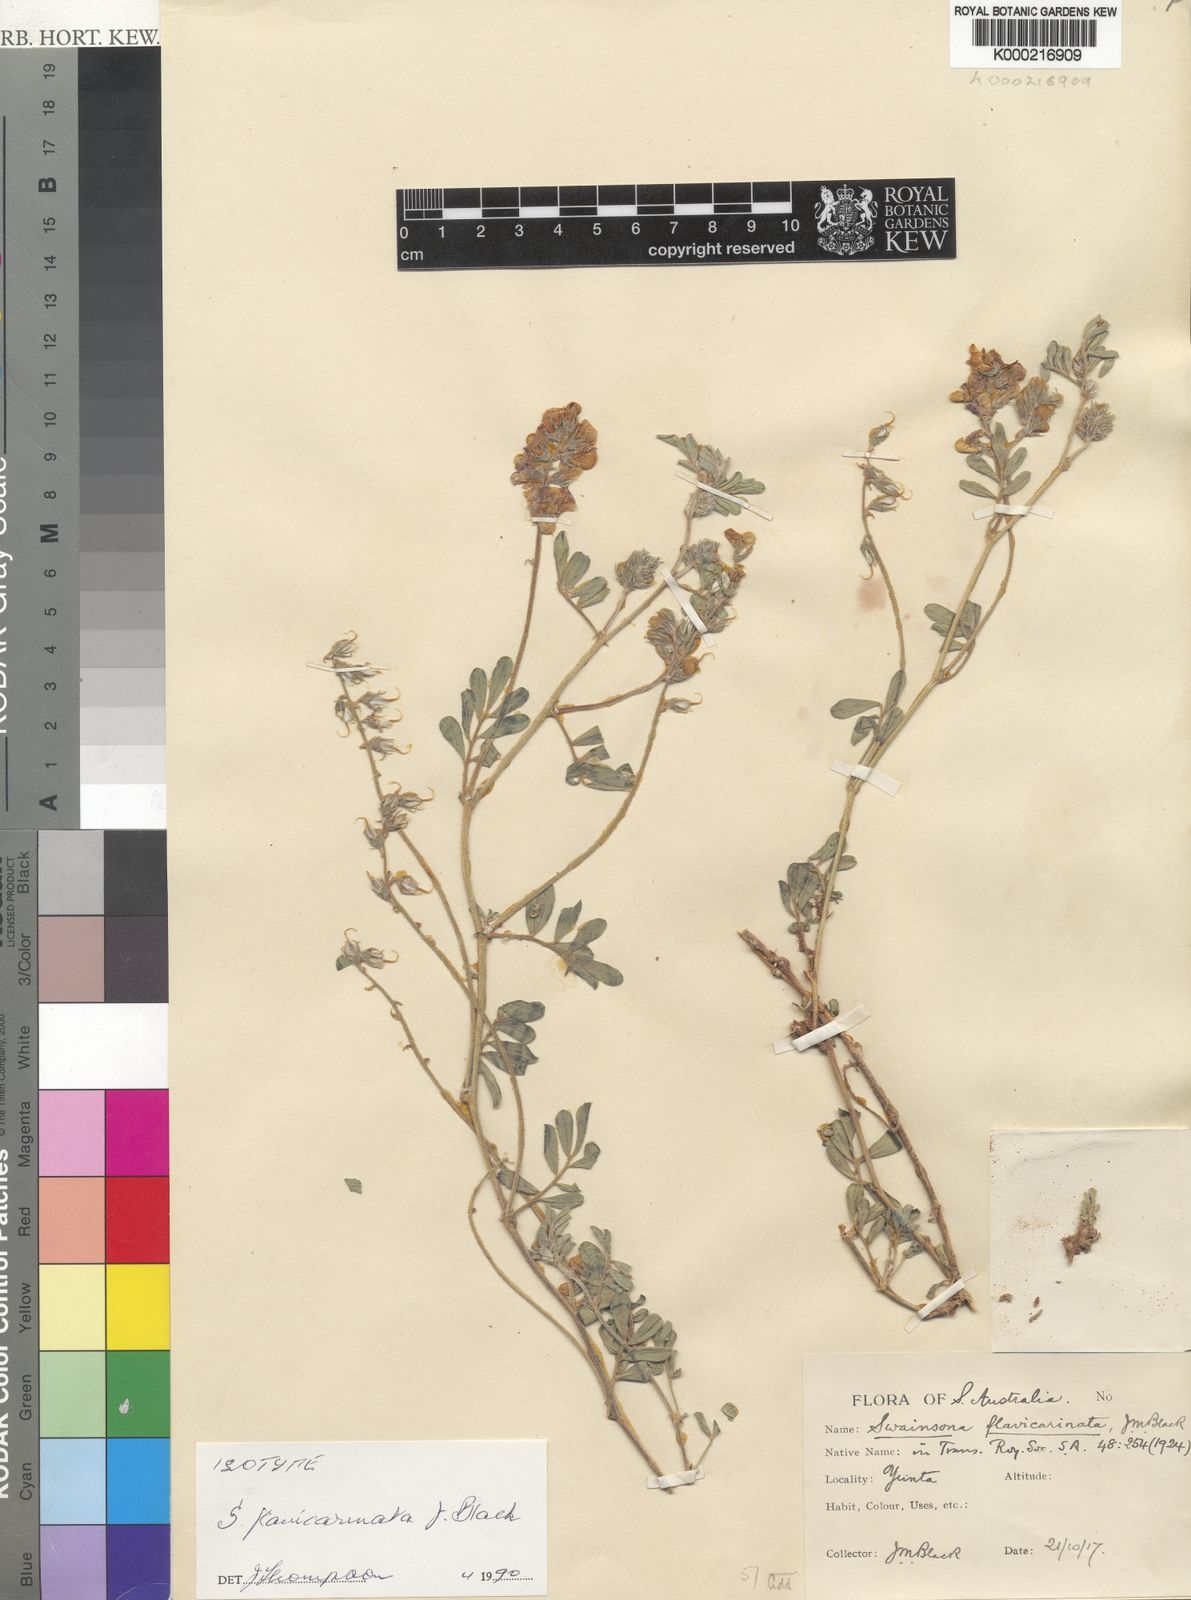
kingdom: Plantae
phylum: Tracheophyta
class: Magnoliopsida
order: Fabales
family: Fabaceae
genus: Swainsona
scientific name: Swainsona flavicarinata
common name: Yellow-keel swainsona
